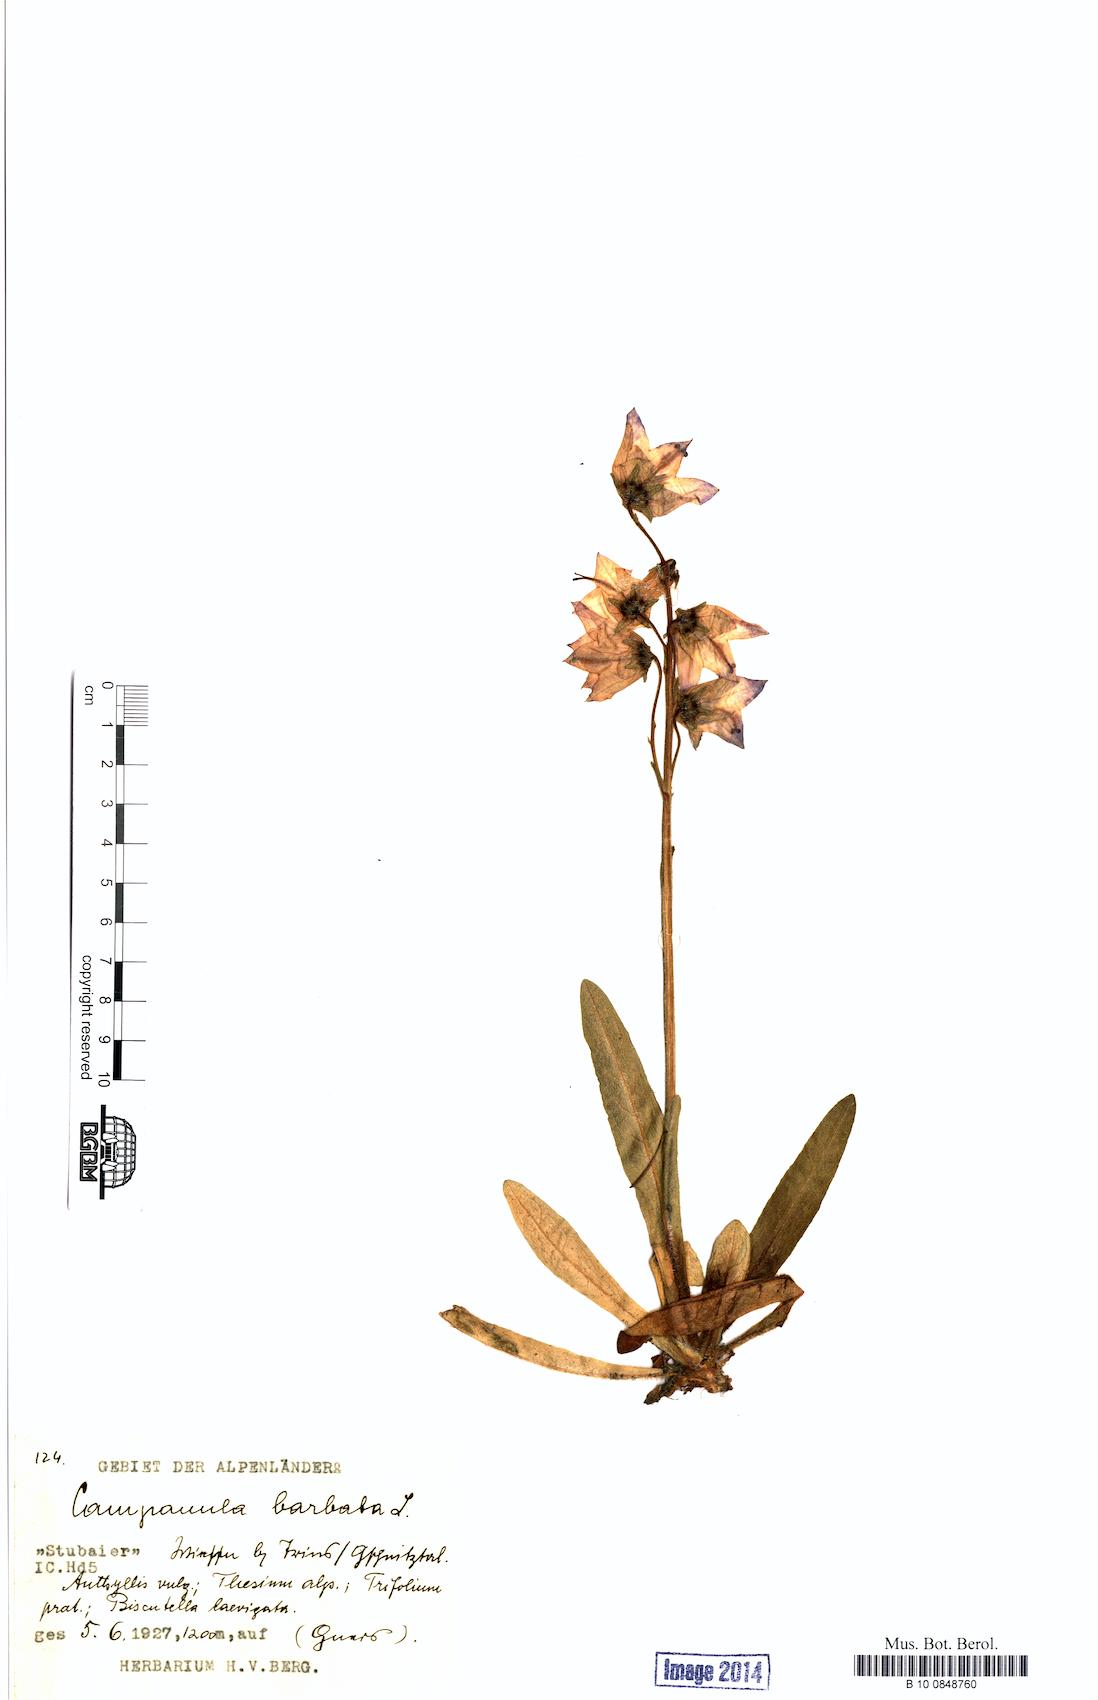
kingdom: Plantae
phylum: Tracheophyta
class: Magnoliopsida
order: Asterales
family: Campanulaceae
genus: Campanula
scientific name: Campanula barbata
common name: Bearded bellflower
